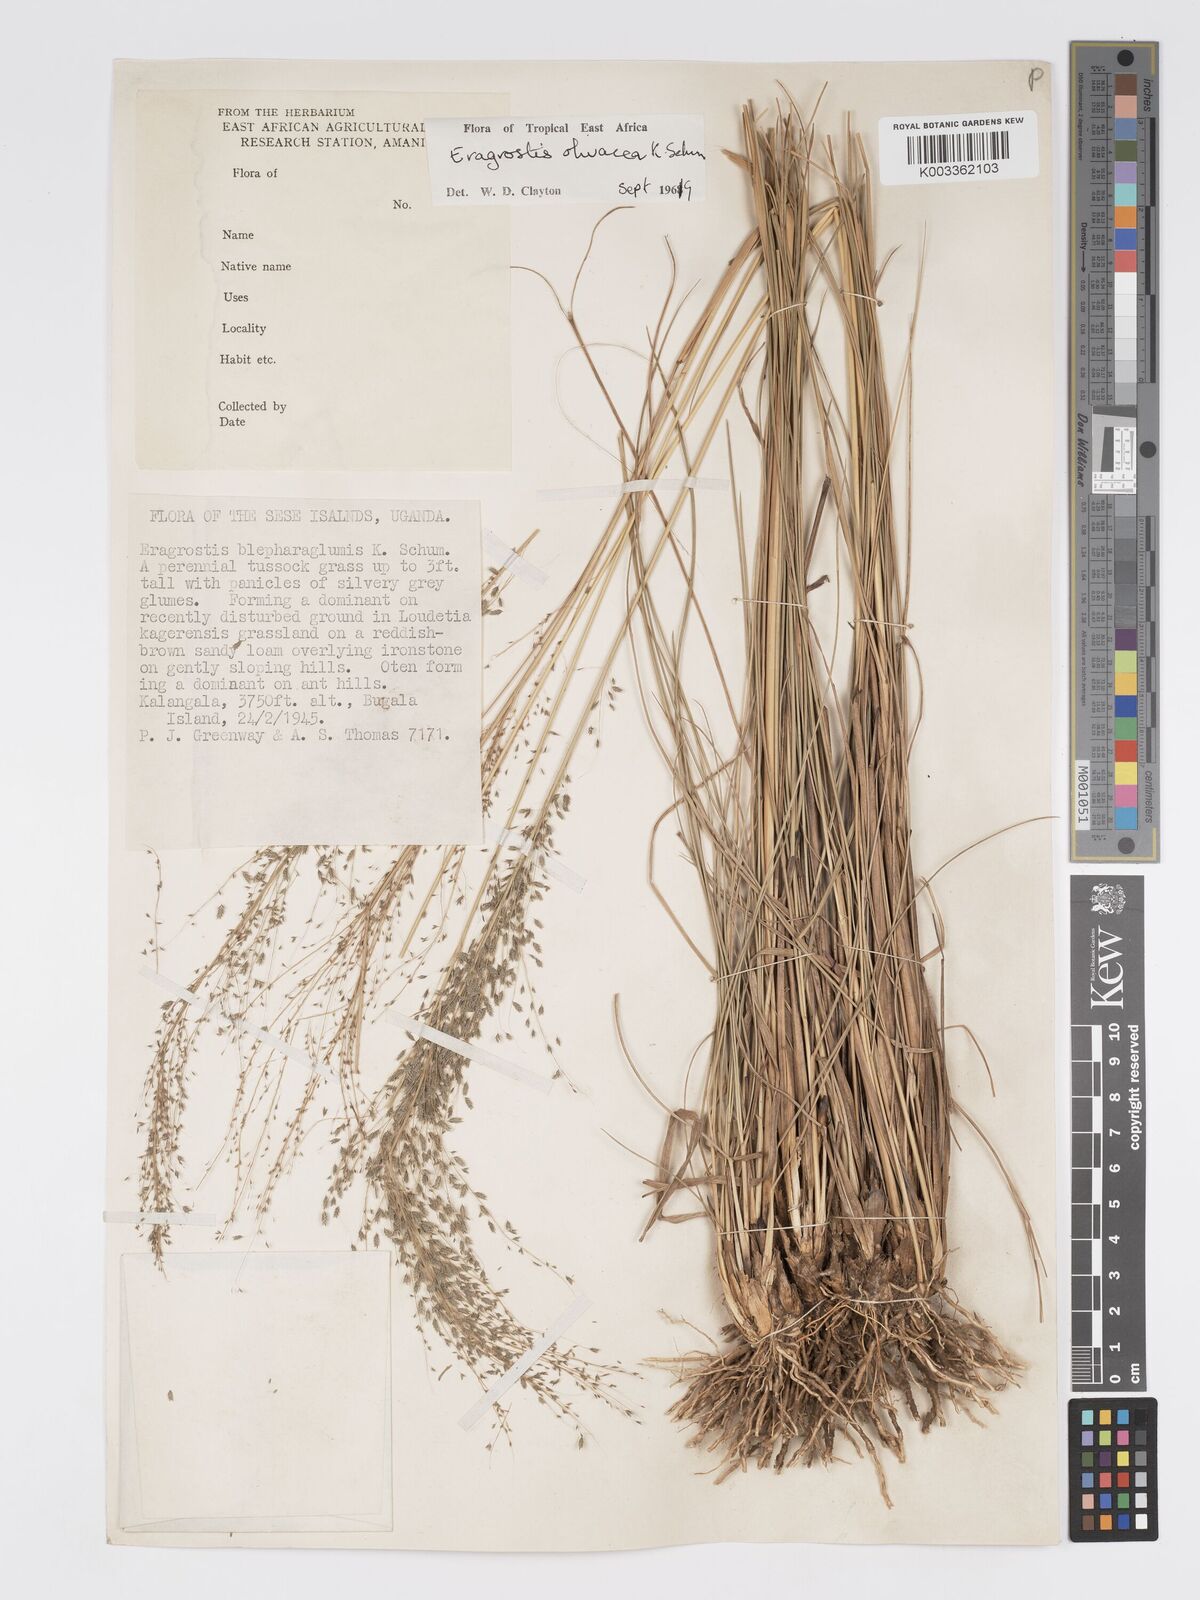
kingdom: Plantae
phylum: Tracheophyta
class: Liliopsida
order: Poales
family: Poaceae
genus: Eragrostis
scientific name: Eragrostis olivacea
